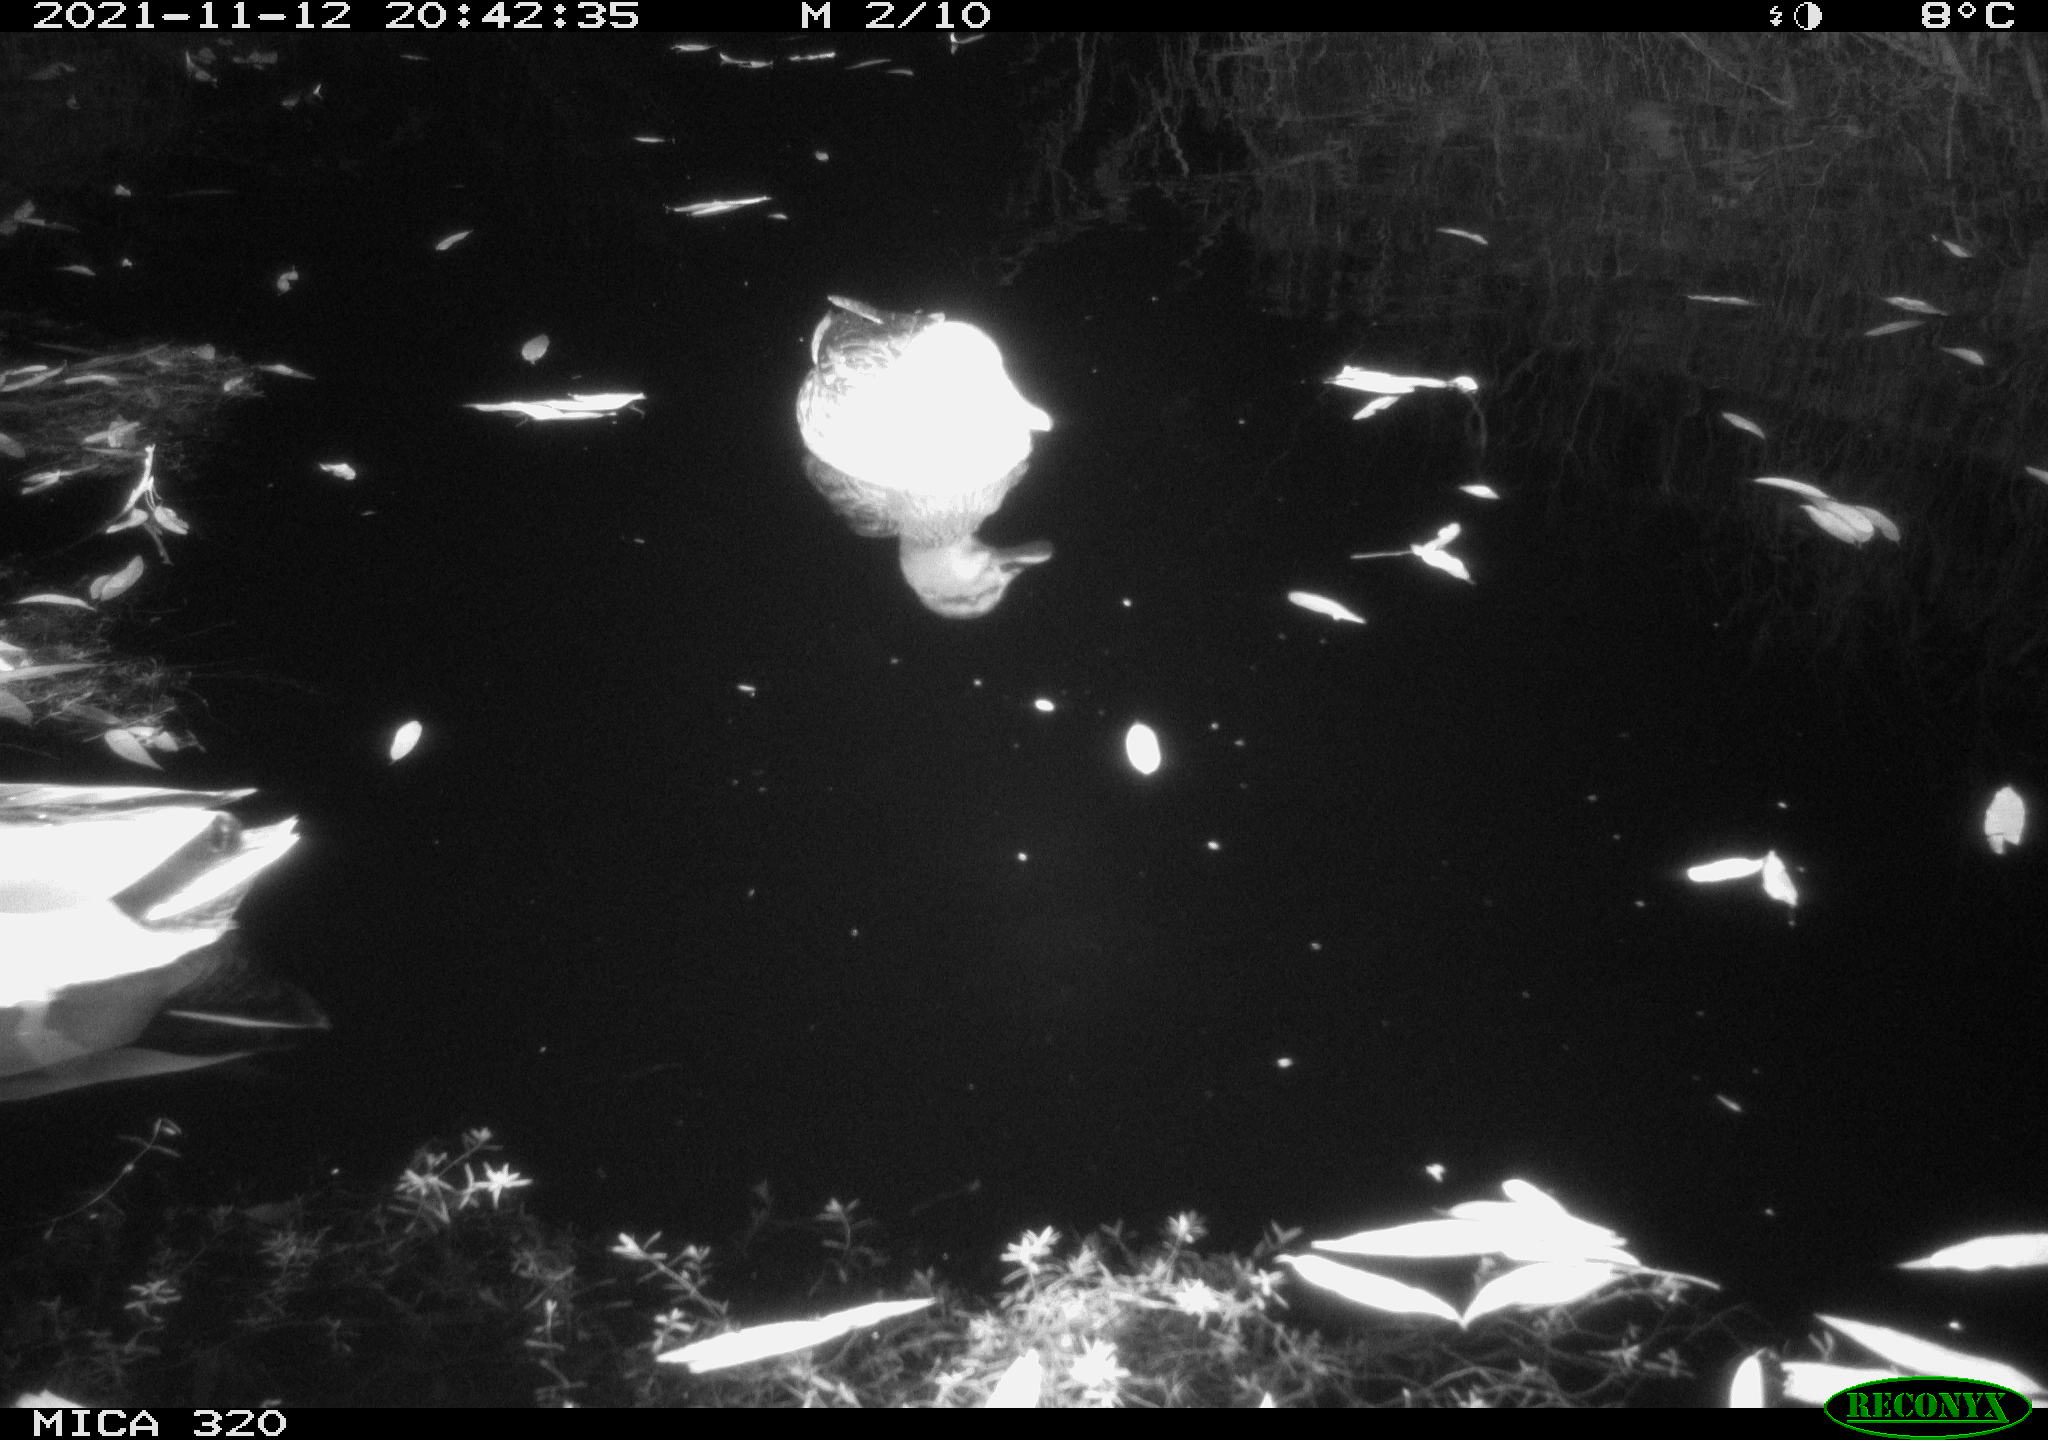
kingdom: Animalia
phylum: Chordata
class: Aves
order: Anseriformes
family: Anatidae
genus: Anas
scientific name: Anas platyrhynchos
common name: Mallard
